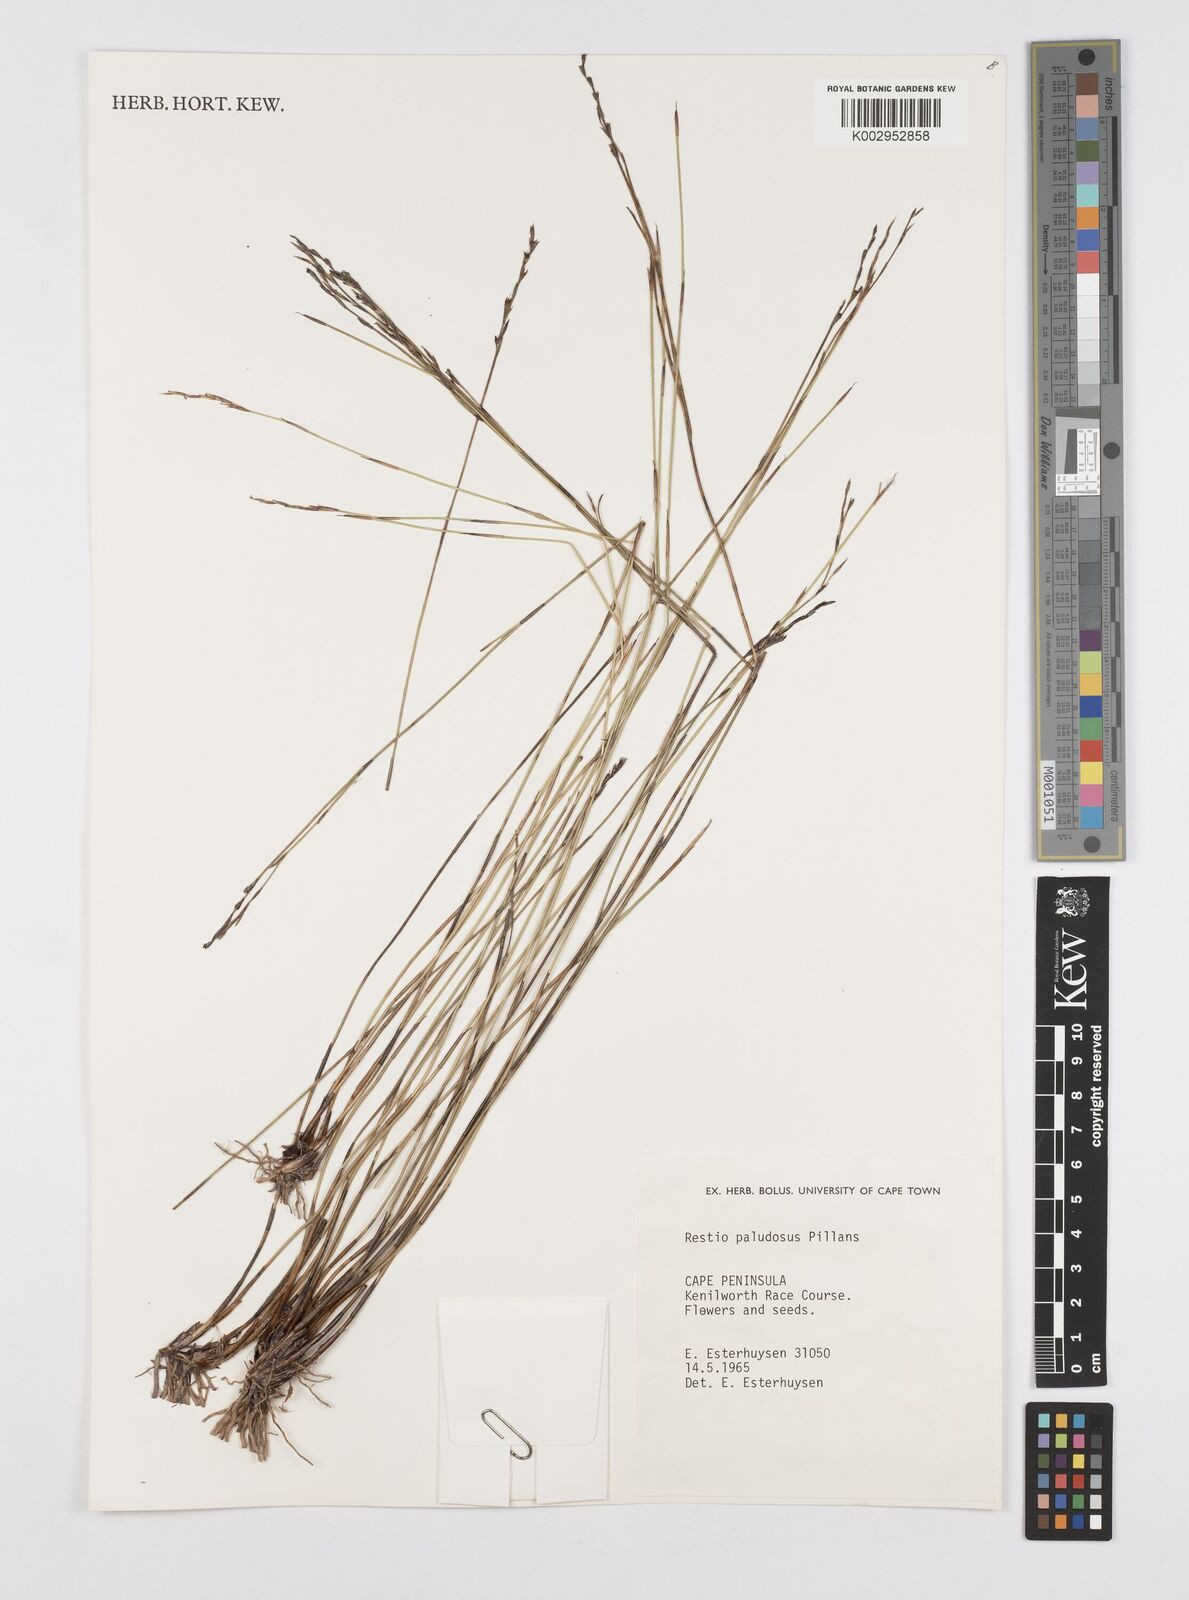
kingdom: Plantae
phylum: Tracheophyta
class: Liliopsida
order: Poales
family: Restionaceae
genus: Restio
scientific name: Restio paludosus
